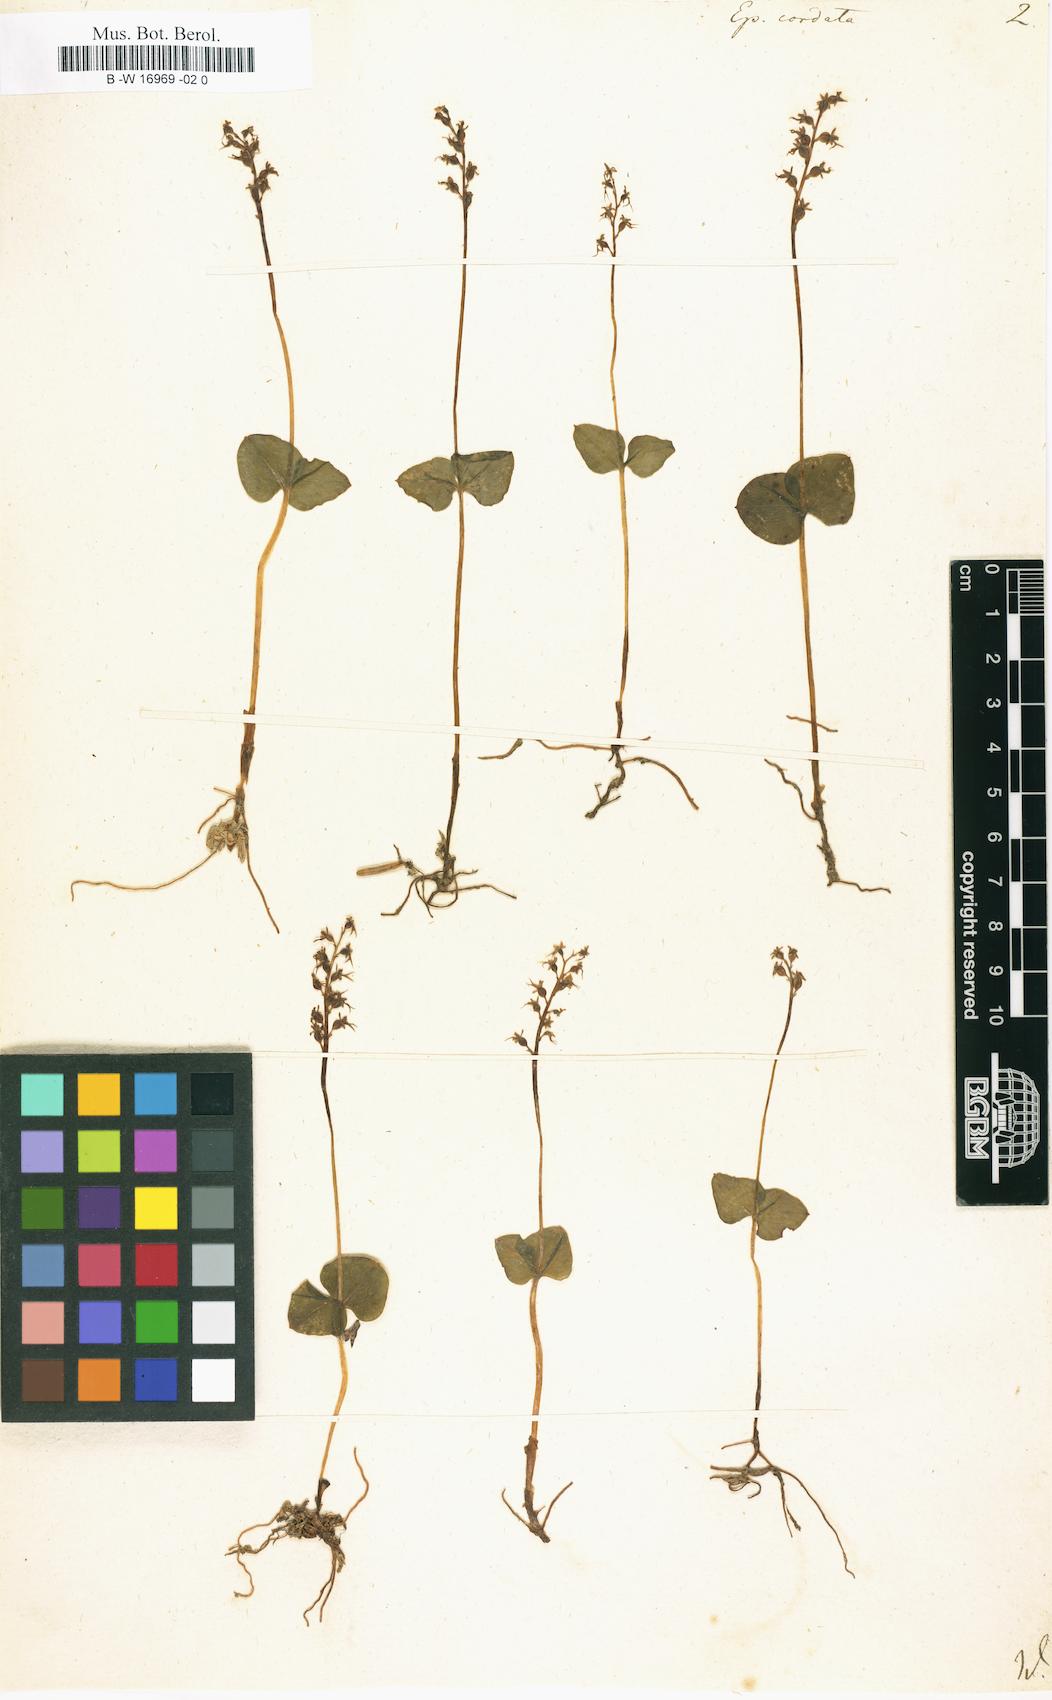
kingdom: Plantae
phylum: Tracheophyta
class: Liliopsida
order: Asparagales
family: Orchidaceae
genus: Neottia
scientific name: Neottia cordata
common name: Lesser twayblade
